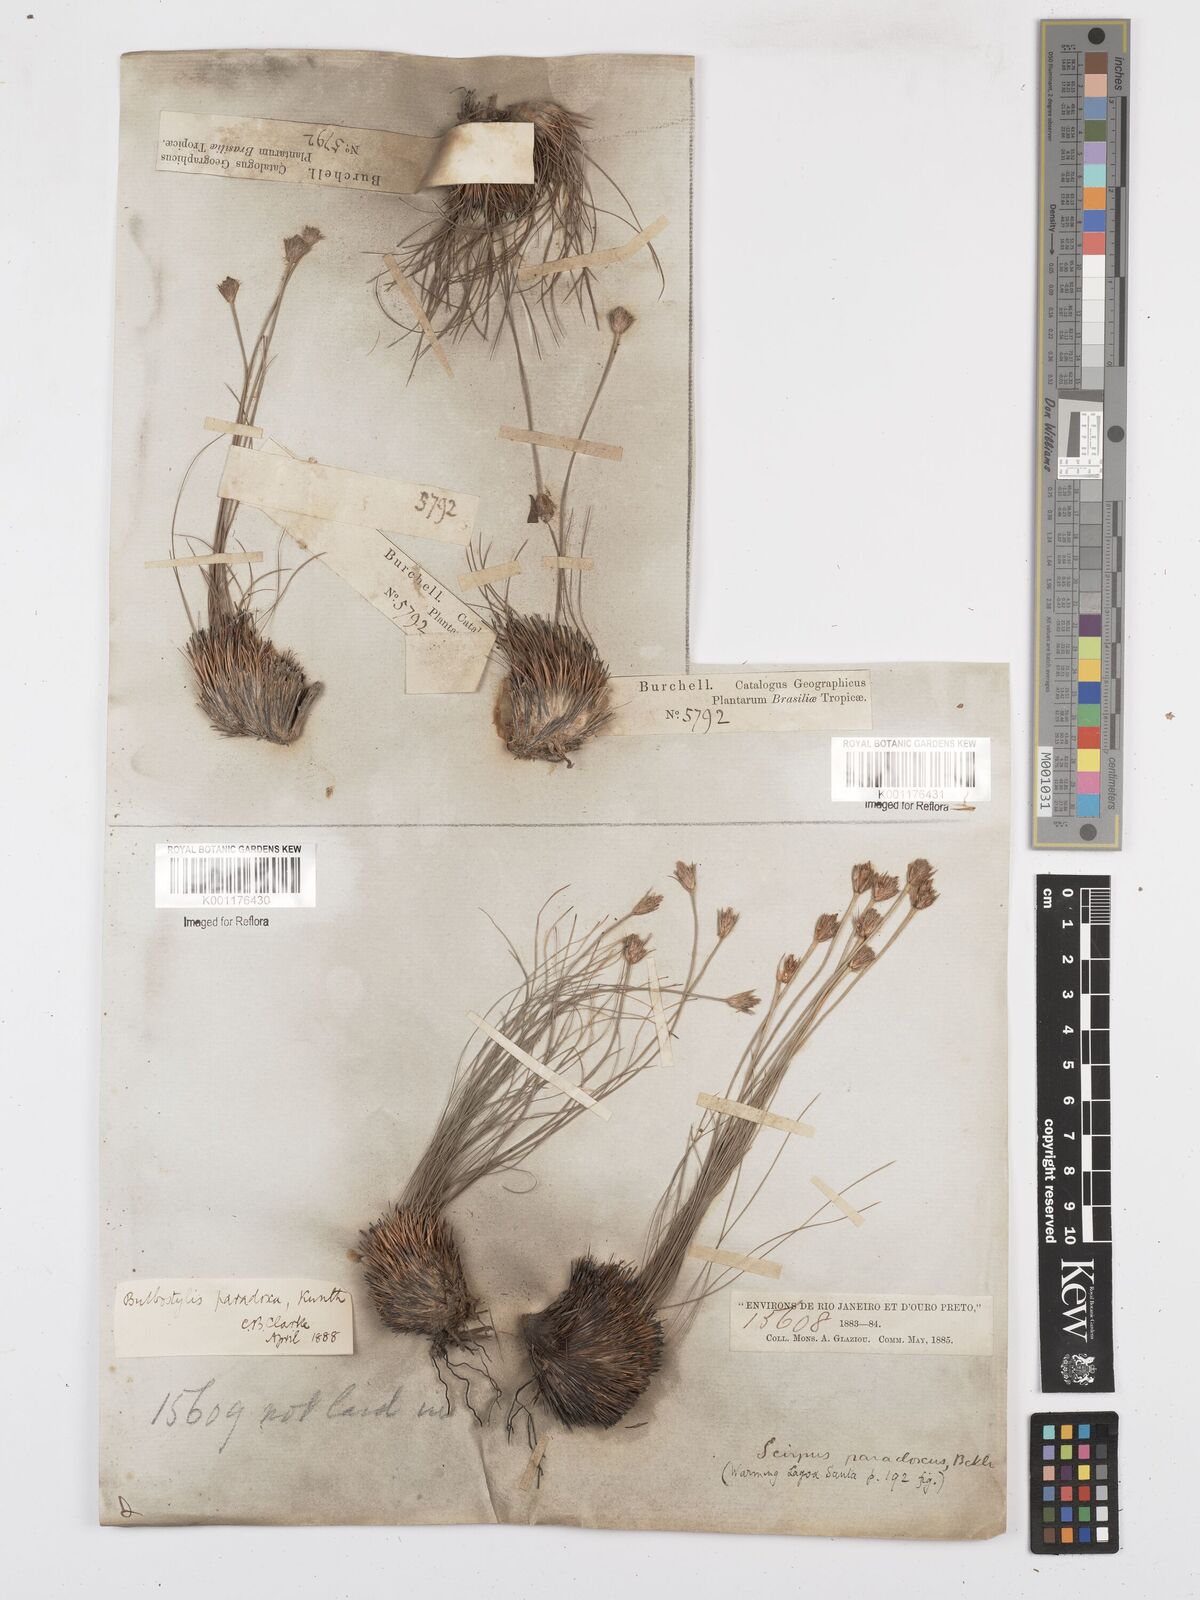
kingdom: Plantae
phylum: Tracheophyta
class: Liliopsida
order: Poales
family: Cyperaceae
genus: Bulbostylis
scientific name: Bulbostylis paradoxa
